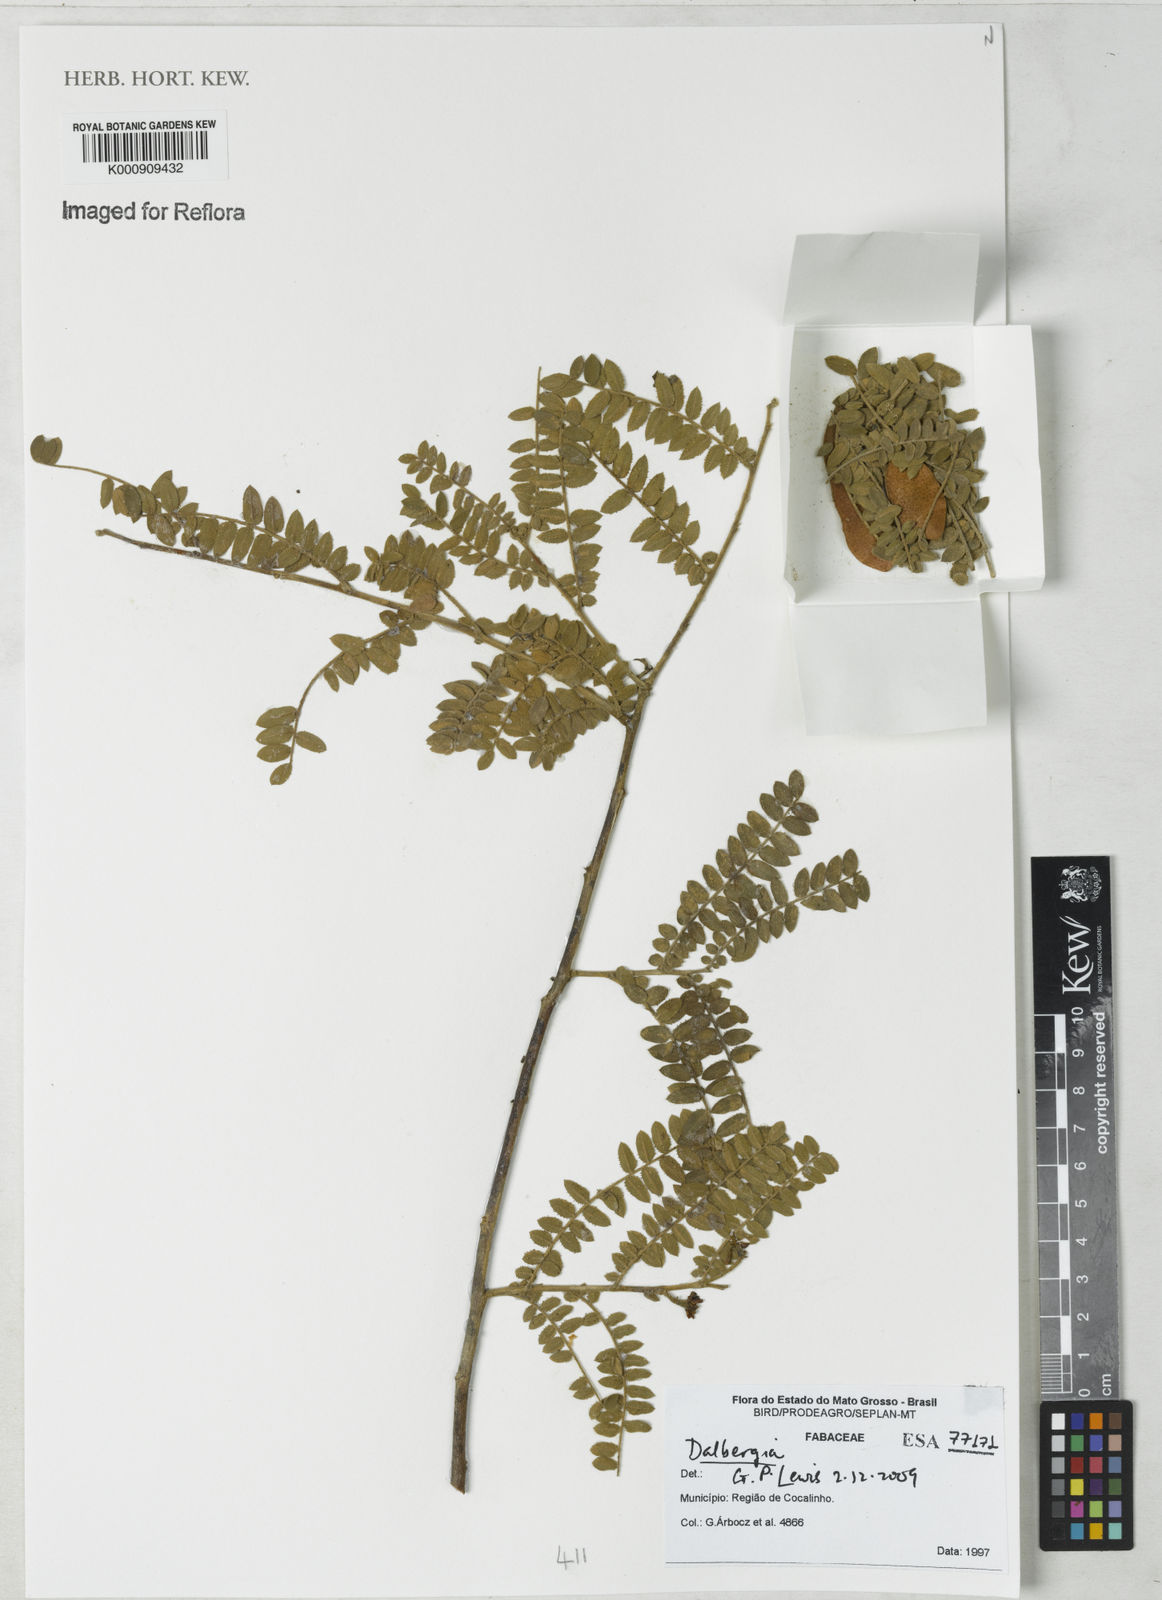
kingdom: Plantae
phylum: Tracheophyta
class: Magnoliopsida
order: Fabales
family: Fabaceae
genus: Dalbergia
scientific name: Dalbergia
